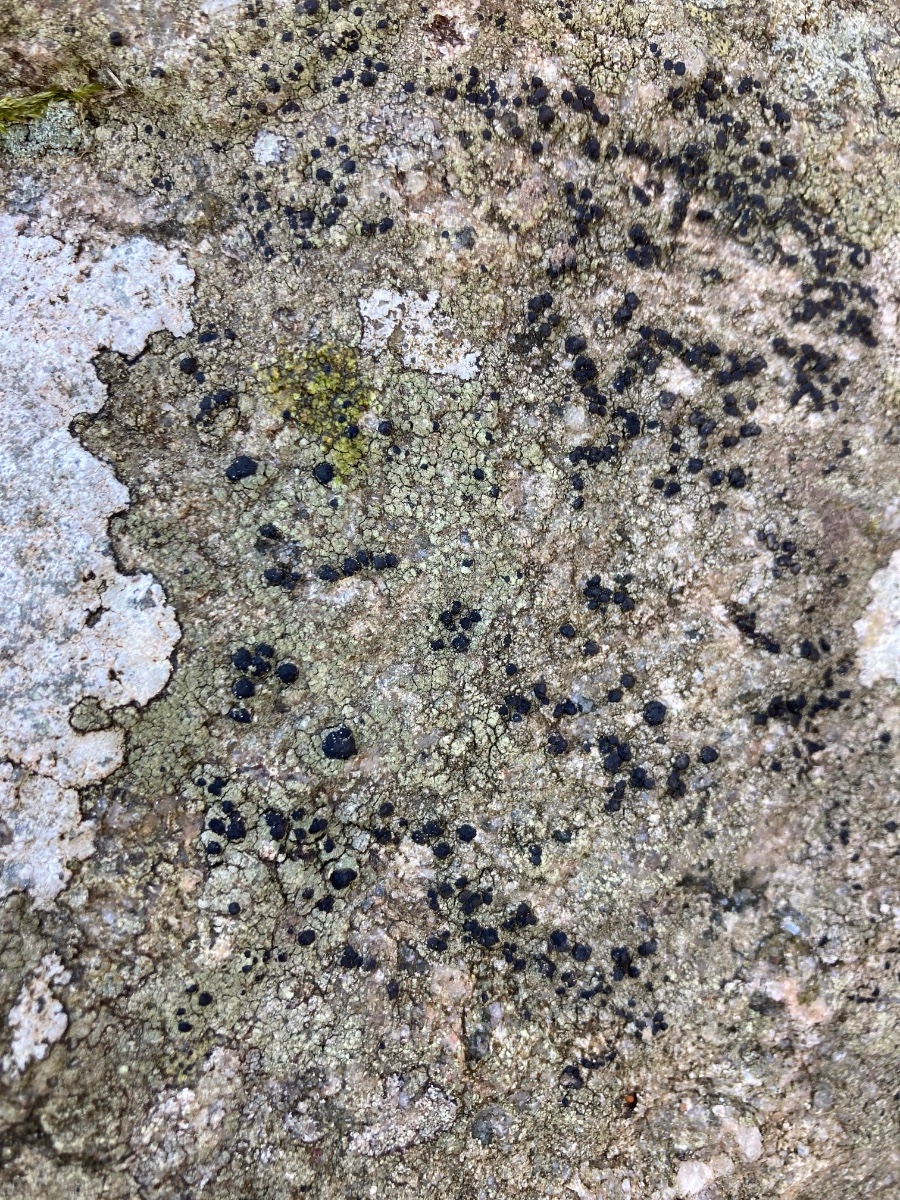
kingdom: Fungi
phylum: Ascomycota
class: Lecanoromycetes
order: Lecanorales
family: Lecanoraceae
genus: Lecidella
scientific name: Lecidella scabra
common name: skurvet skivelav
